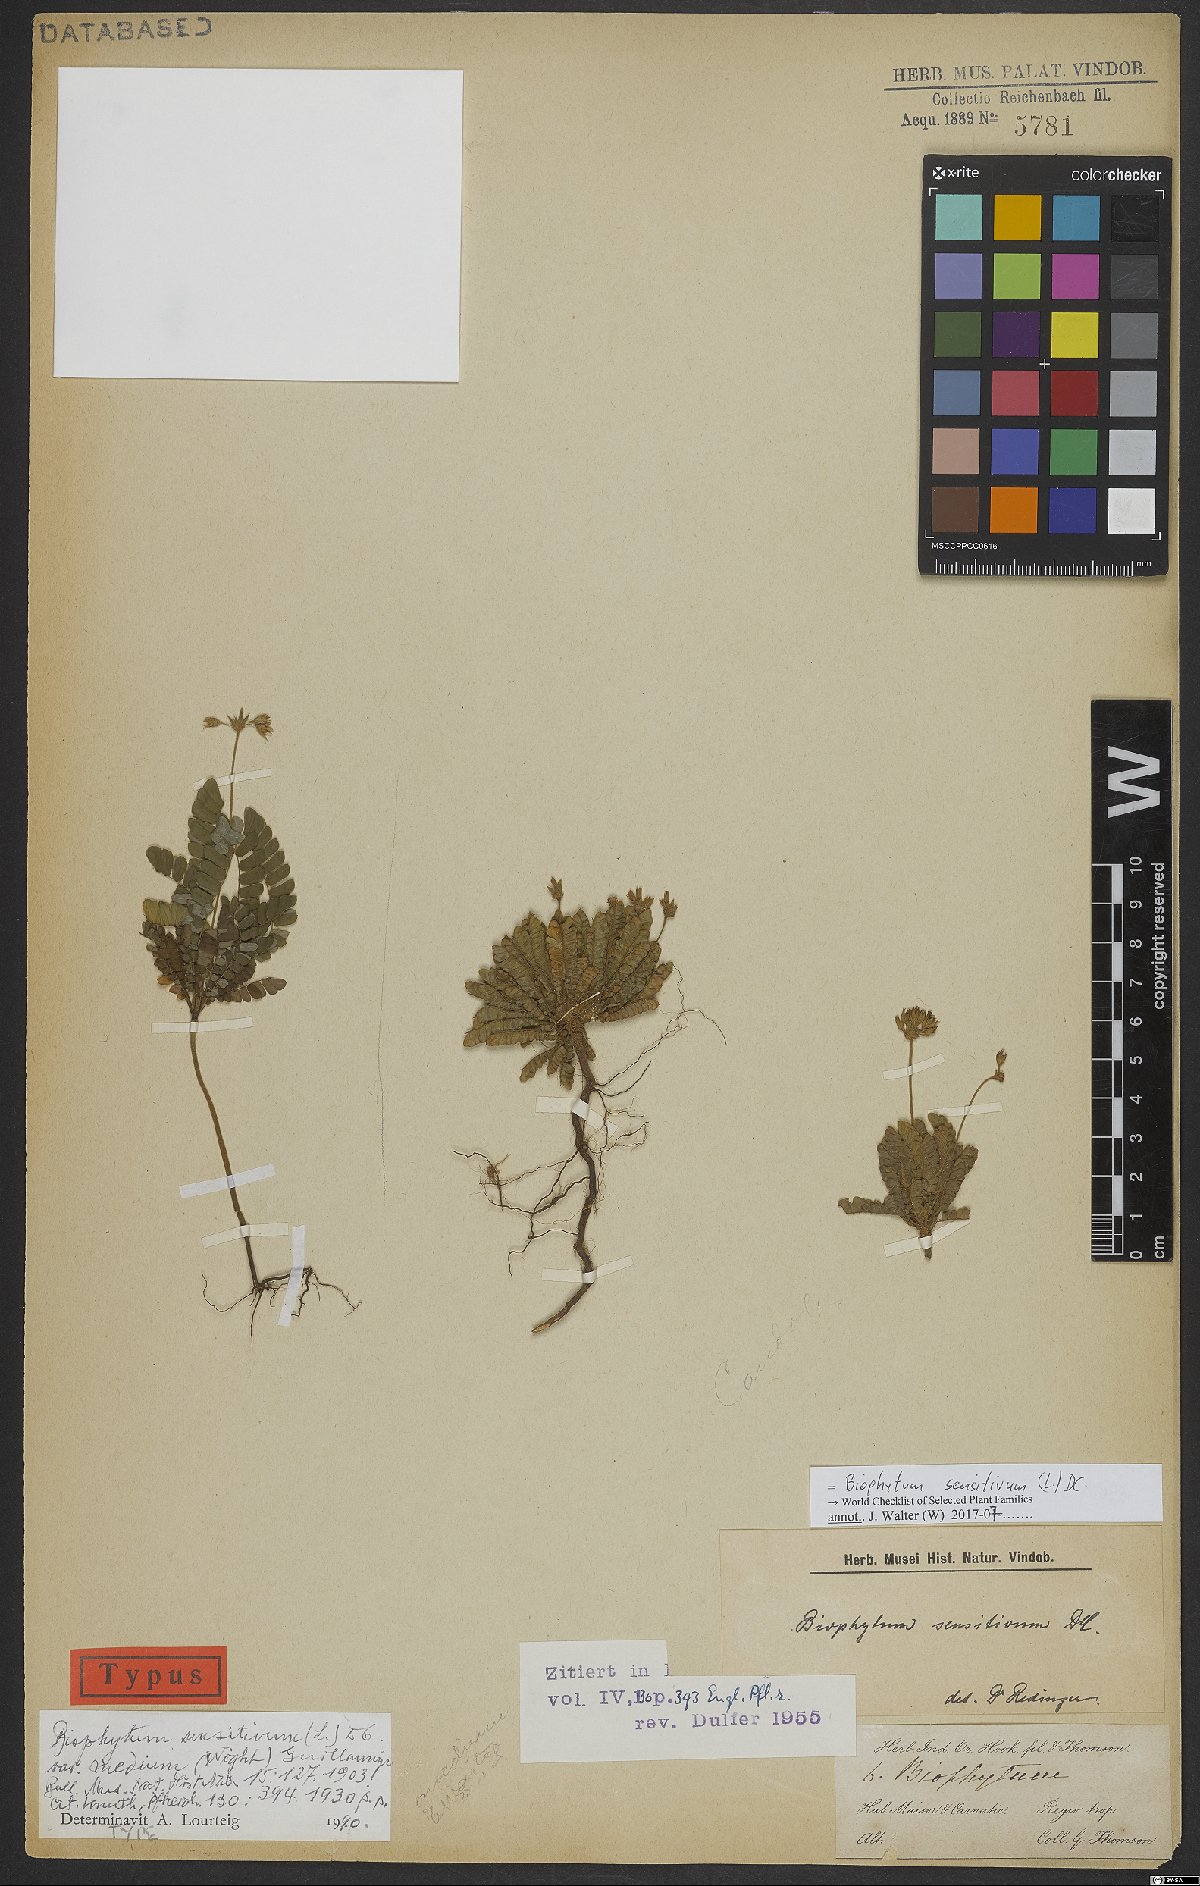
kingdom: Plantae
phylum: Tracheophyta
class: Magnoliopsida
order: Oxalidales
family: Oxalidaceae
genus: Biophytum
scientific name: Biophytum sensitivum
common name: Lifeplant
